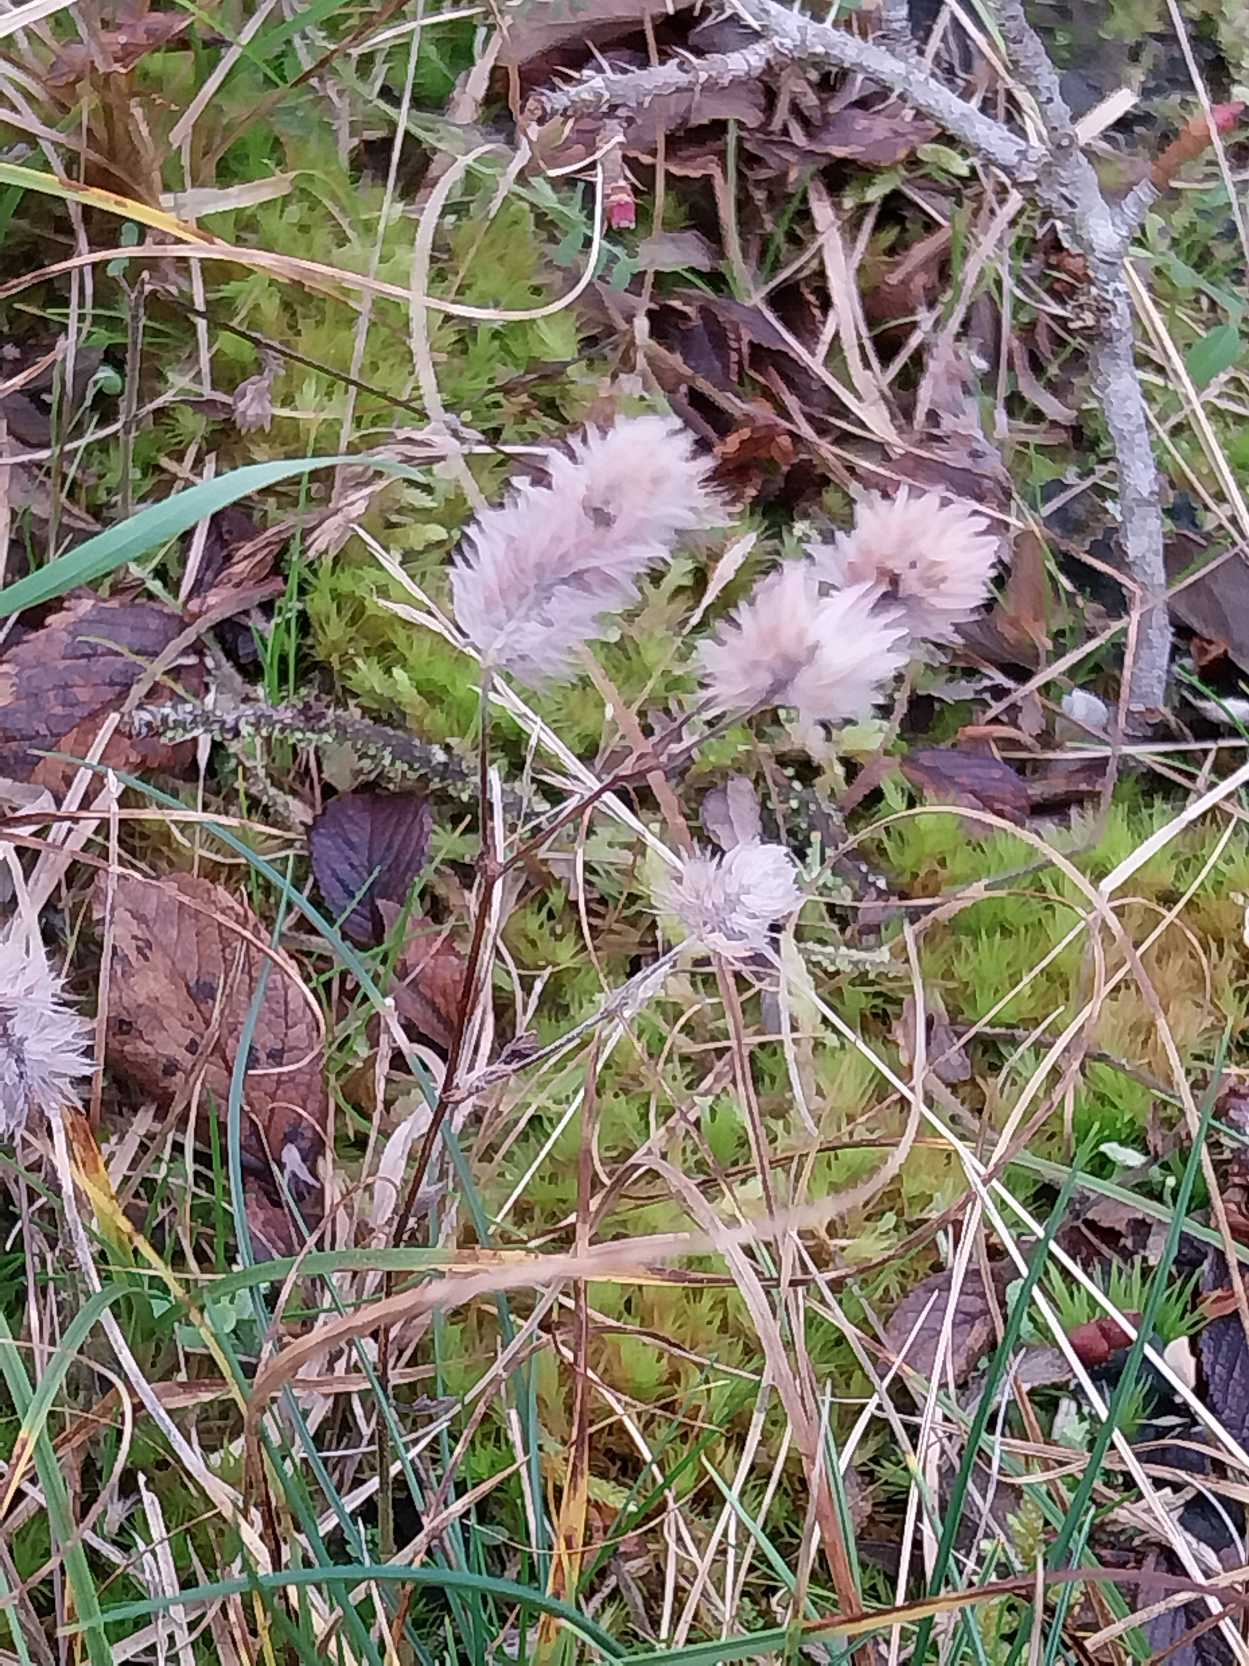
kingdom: Plantae
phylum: Tracheophyta
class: Magnoliopsida
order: Fabales
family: Fabaceae
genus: Trifolium
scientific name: Trifolium arvense
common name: Hare-kløver
